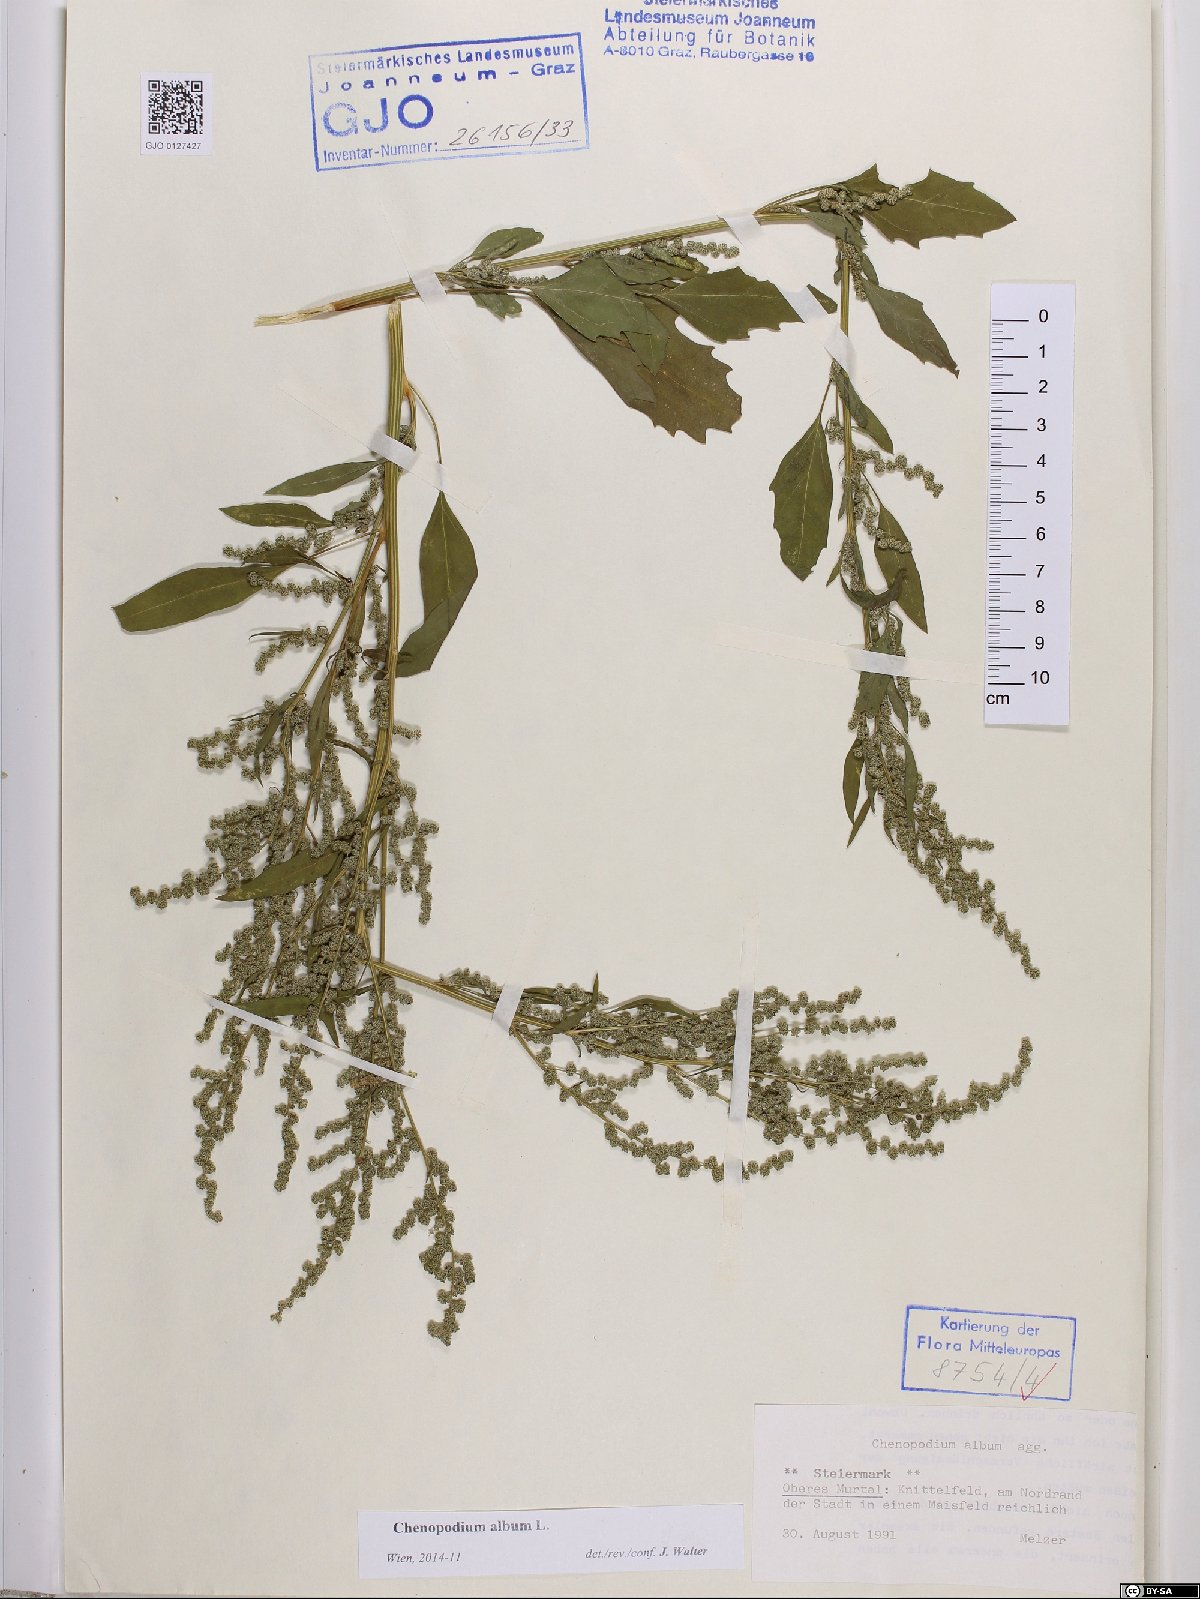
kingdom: Plantae
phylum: Tracheophyta
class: Magnoliopsida
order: Caryophyllales
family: Amaranthaceae
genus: Chenopodium
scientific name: Chenopodium album
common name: Fat-hen
